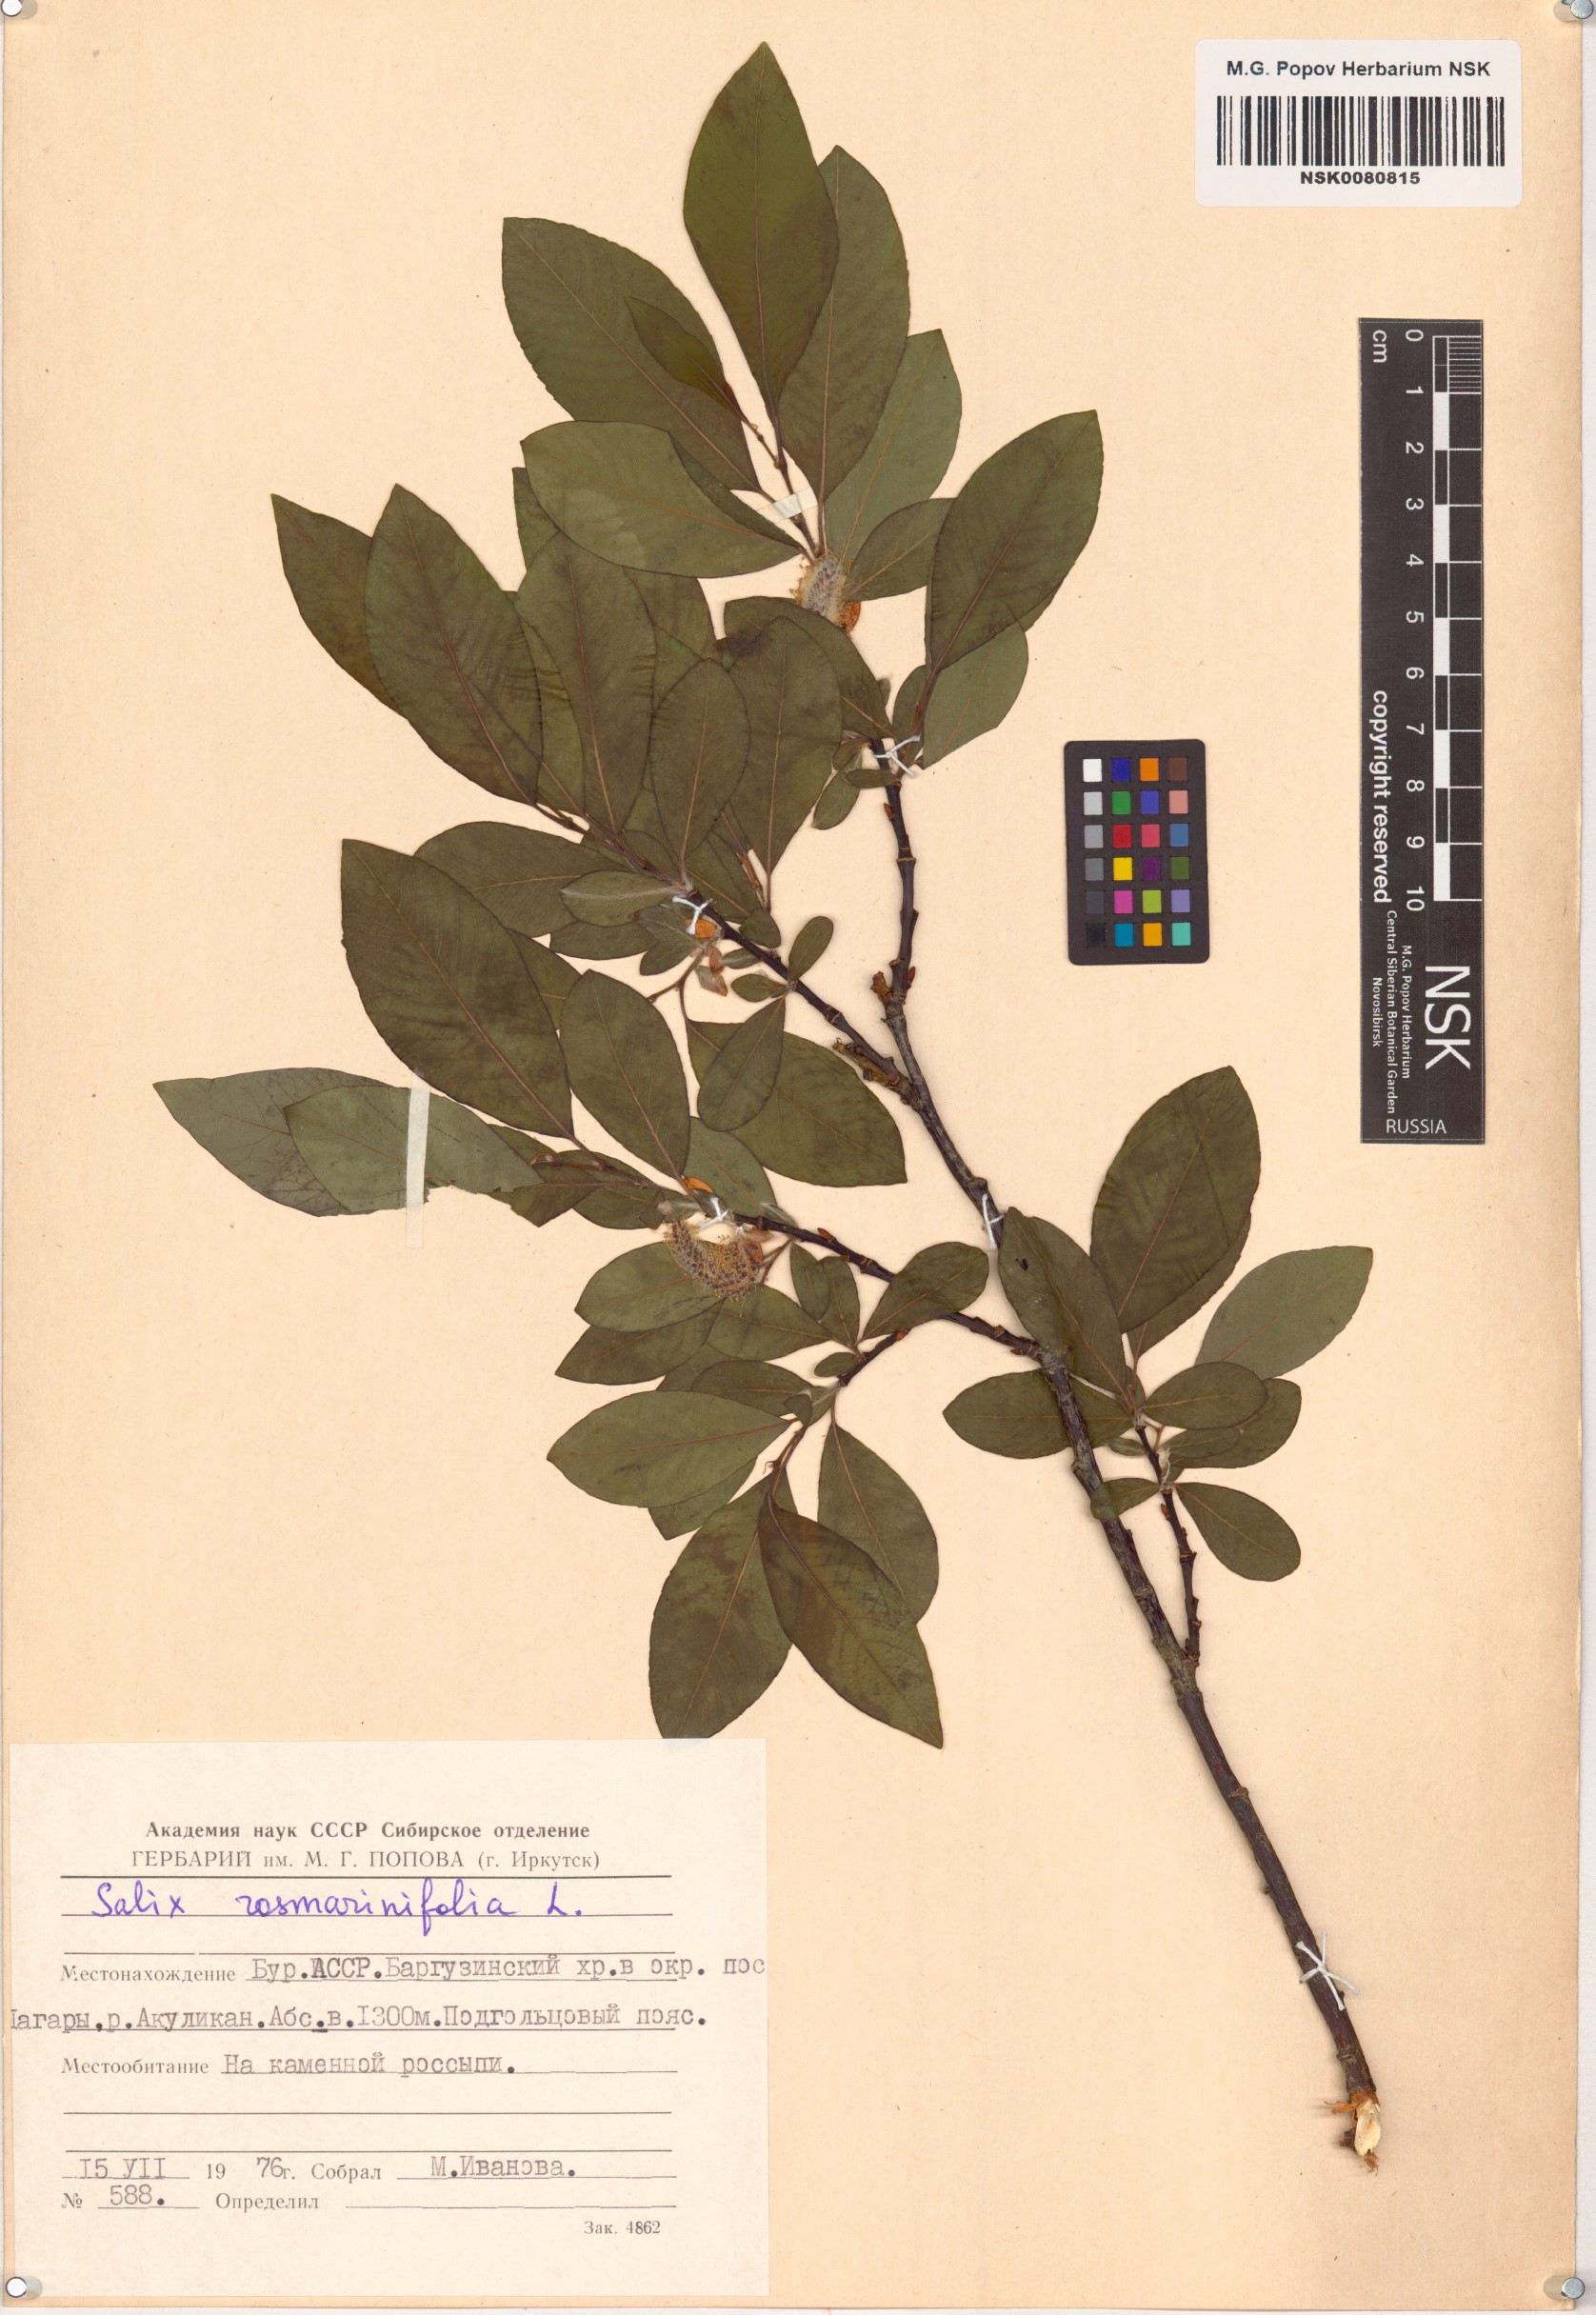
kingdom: Plantae
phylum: Tracheophyta
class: Magnoliopsida
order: Malpighiales
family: Salicaceae
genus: Salix
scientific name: Salix rosmarinifolia
